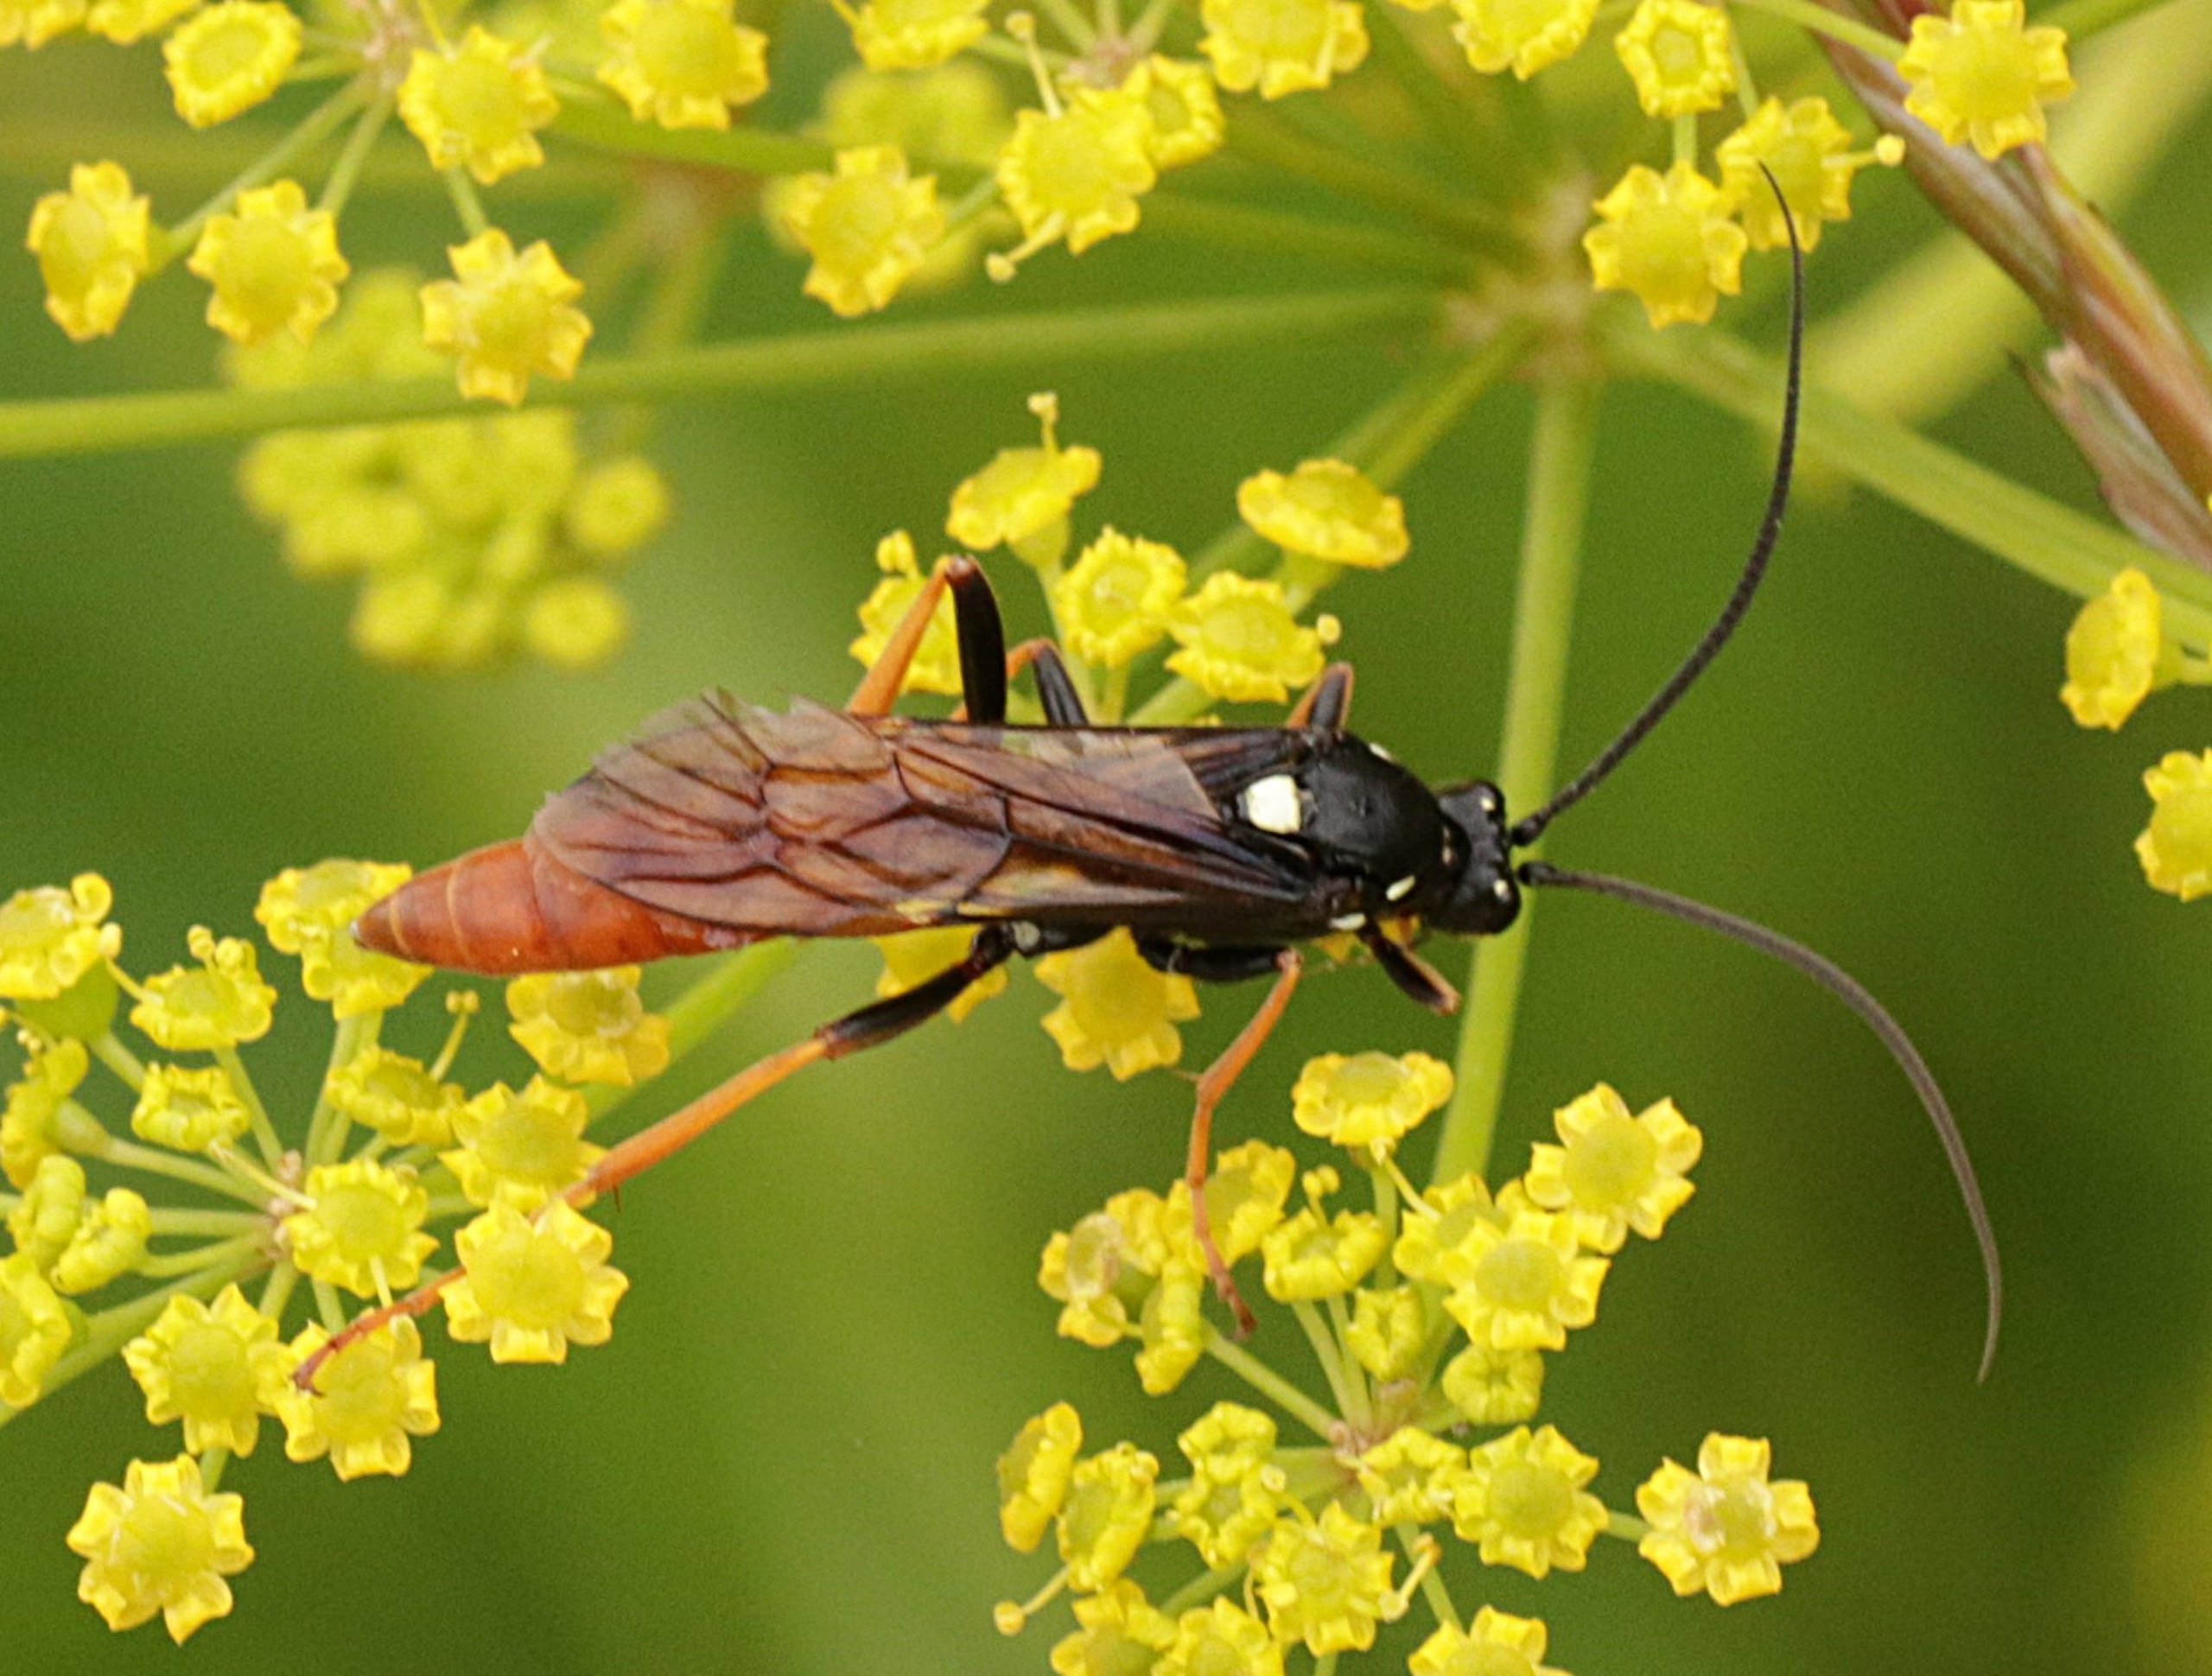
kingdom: Animalia
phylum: Arthropoda
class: Insecta
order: Hymenoptera
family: Ichneumonidae
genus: Amblyjoppa
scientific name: Amblyjoppa fuscipennis
